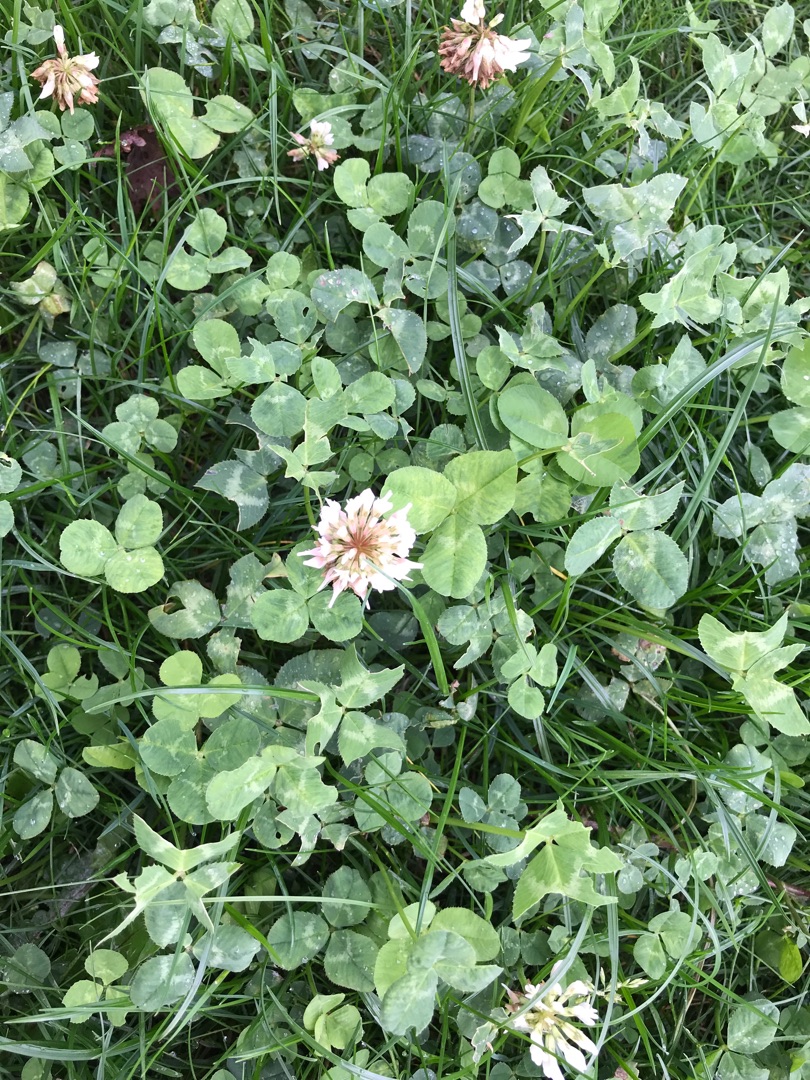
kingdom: Plantae
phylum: Tracheophyta
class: Magnoliopsida
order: Fabales
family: Fabaceae
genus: Trifolium
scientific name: Trifolium repens
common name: Hvid-kløver
